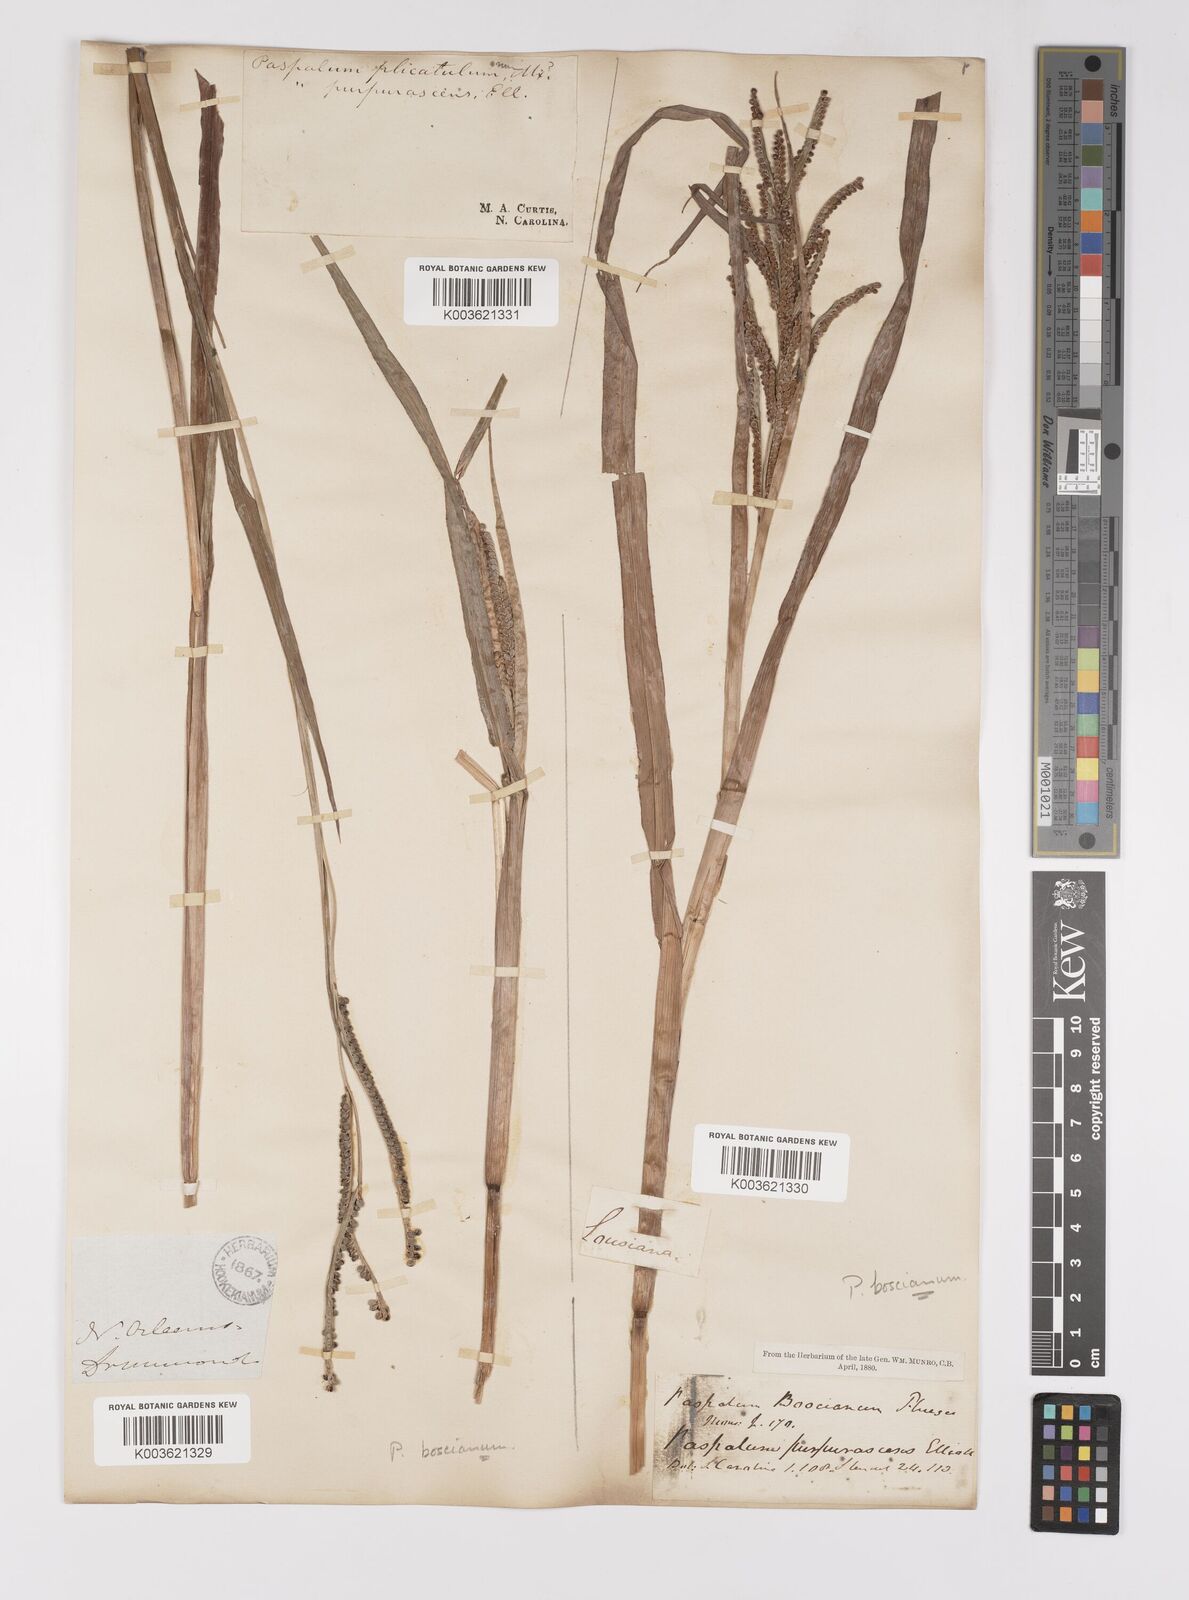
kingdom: Plantae
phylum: Tracheophyta
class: Liliopsida
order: Poales
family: Poaceae
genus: Paspalum
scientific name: Paspalum scrobiculatum
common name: Kodo millet
